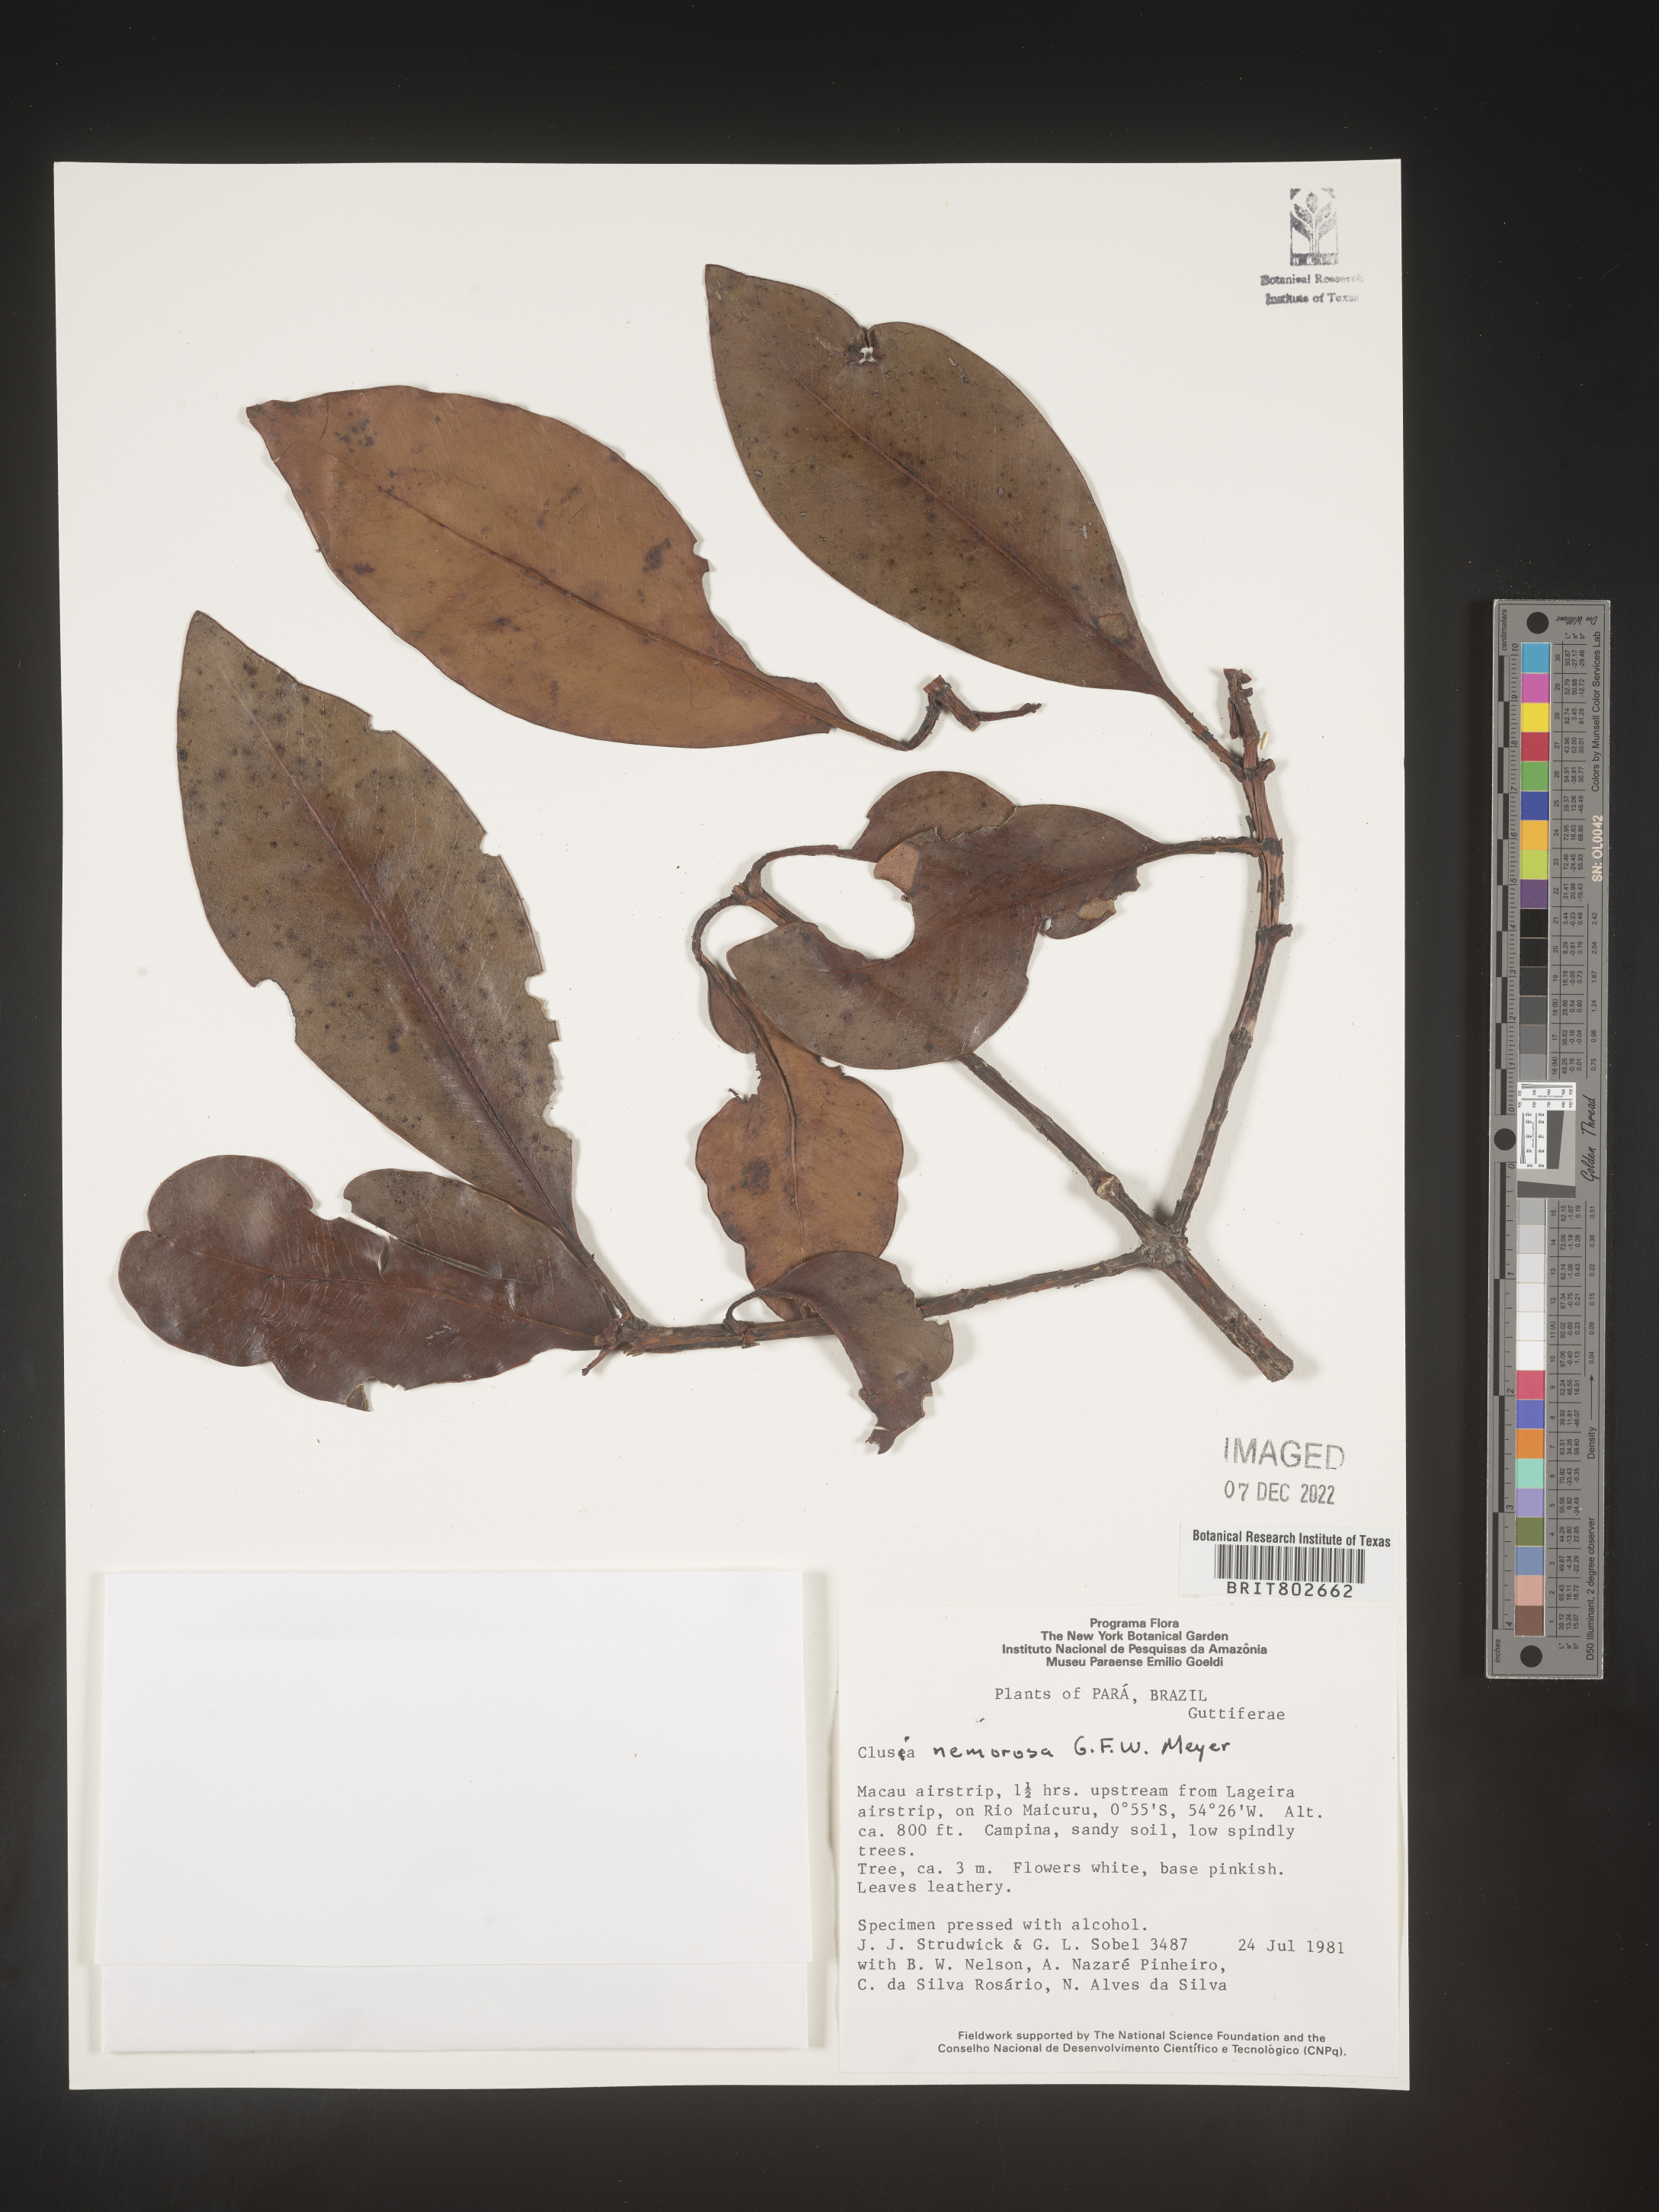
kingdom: Plantae
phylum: Tracheophyta
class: Magnoliopsida
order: Malpighiales
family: Clusiaceae
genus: Clusia
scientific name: Clusia nemorosa
